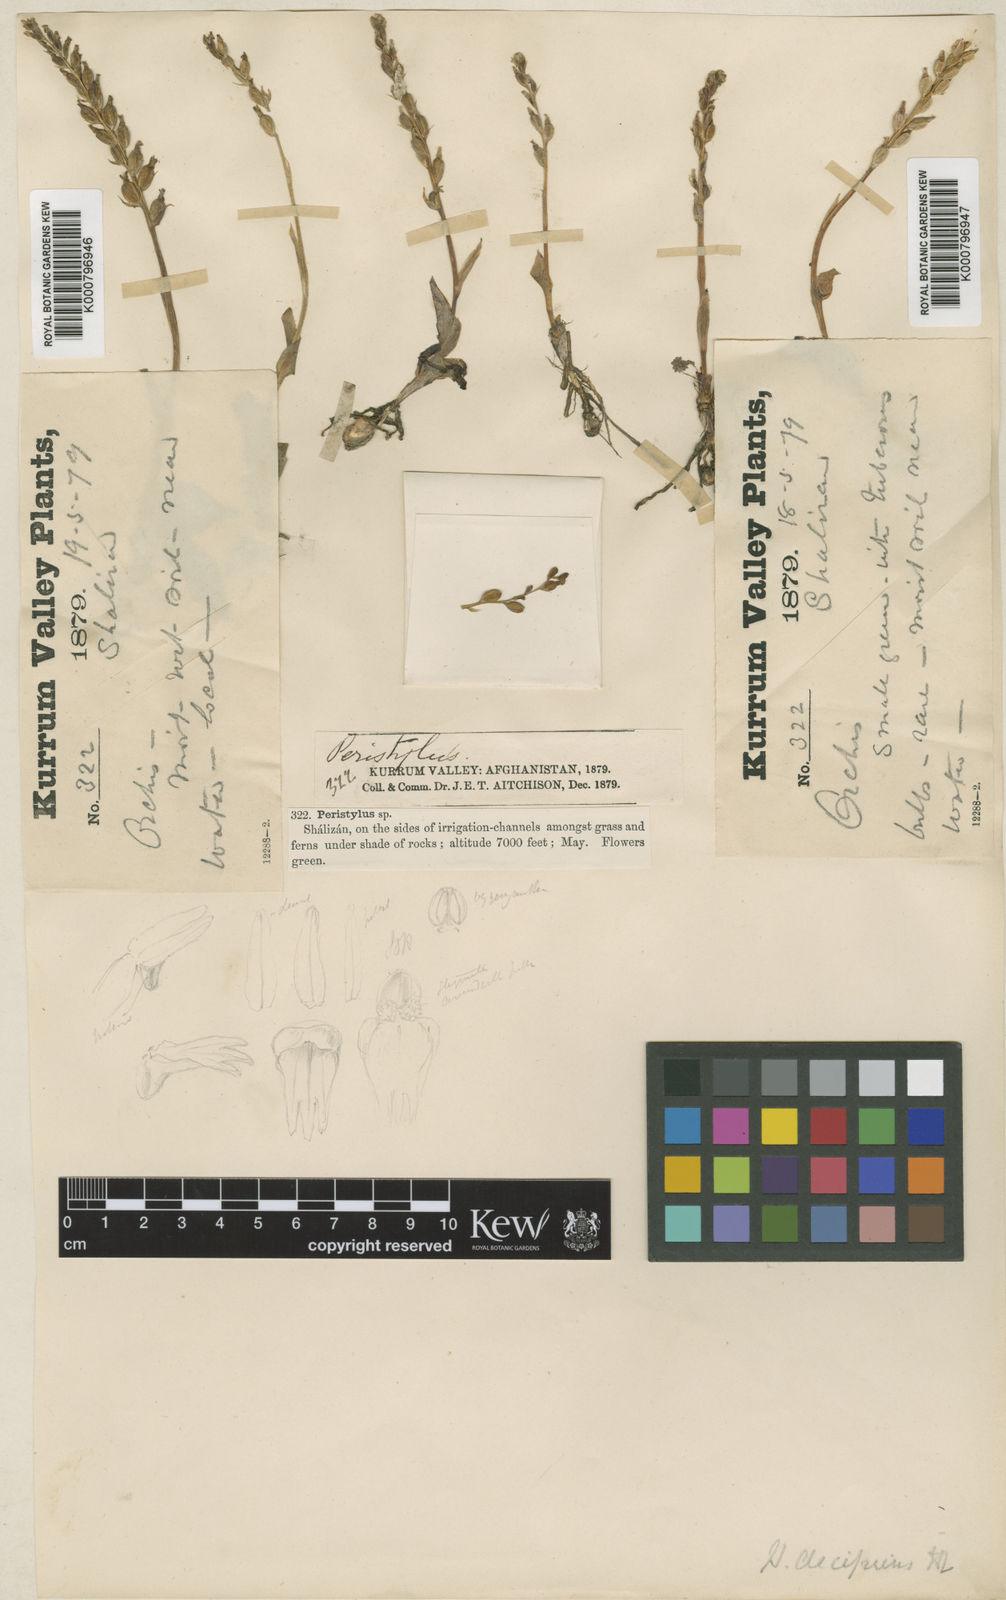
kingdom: Plantae
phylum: Tracheophyta
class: Liliopsida
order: Asparagales
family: Orchidaceae
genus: Gennaria
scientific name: Gennaria griffithii
